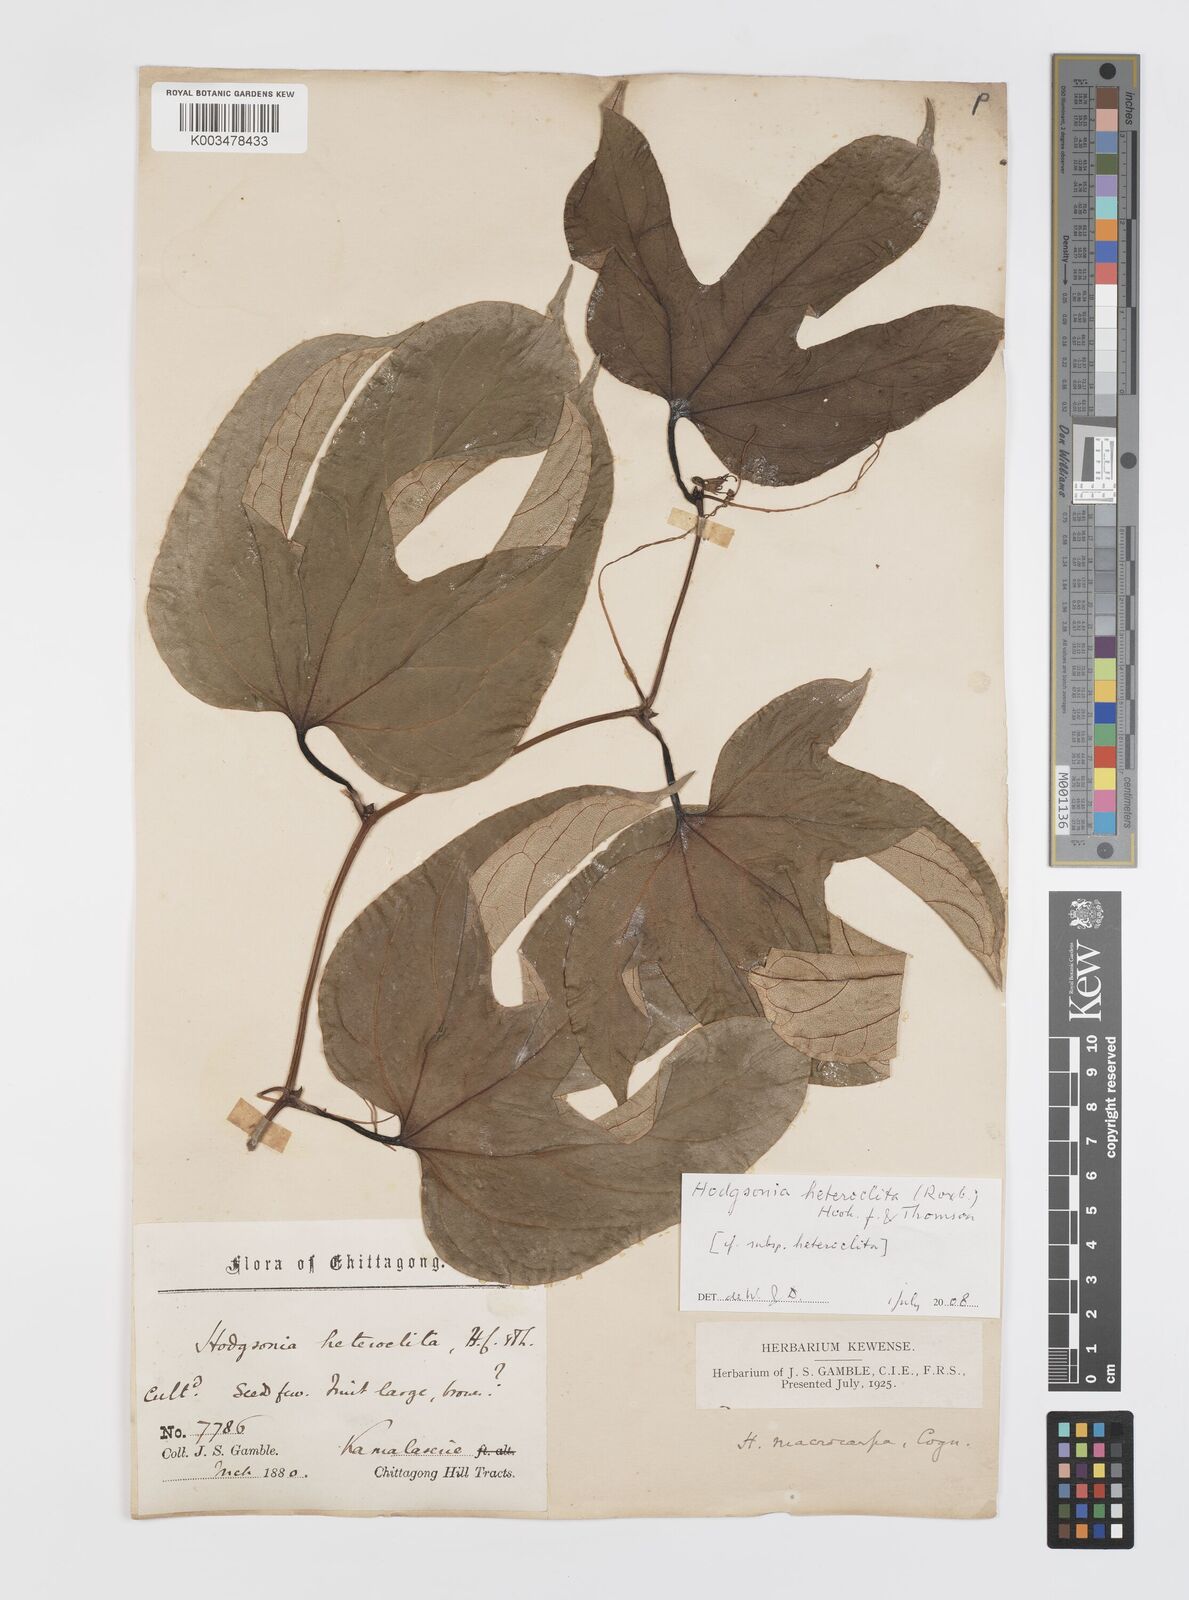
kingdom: Plantae
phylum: Tracheophyta
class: Magnoliopsida
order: Cucurbitales
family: Cucurbitaceae
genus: Hodgsonia
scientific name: Hodgsonia macrocarpa
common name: Chinese lardfruit
